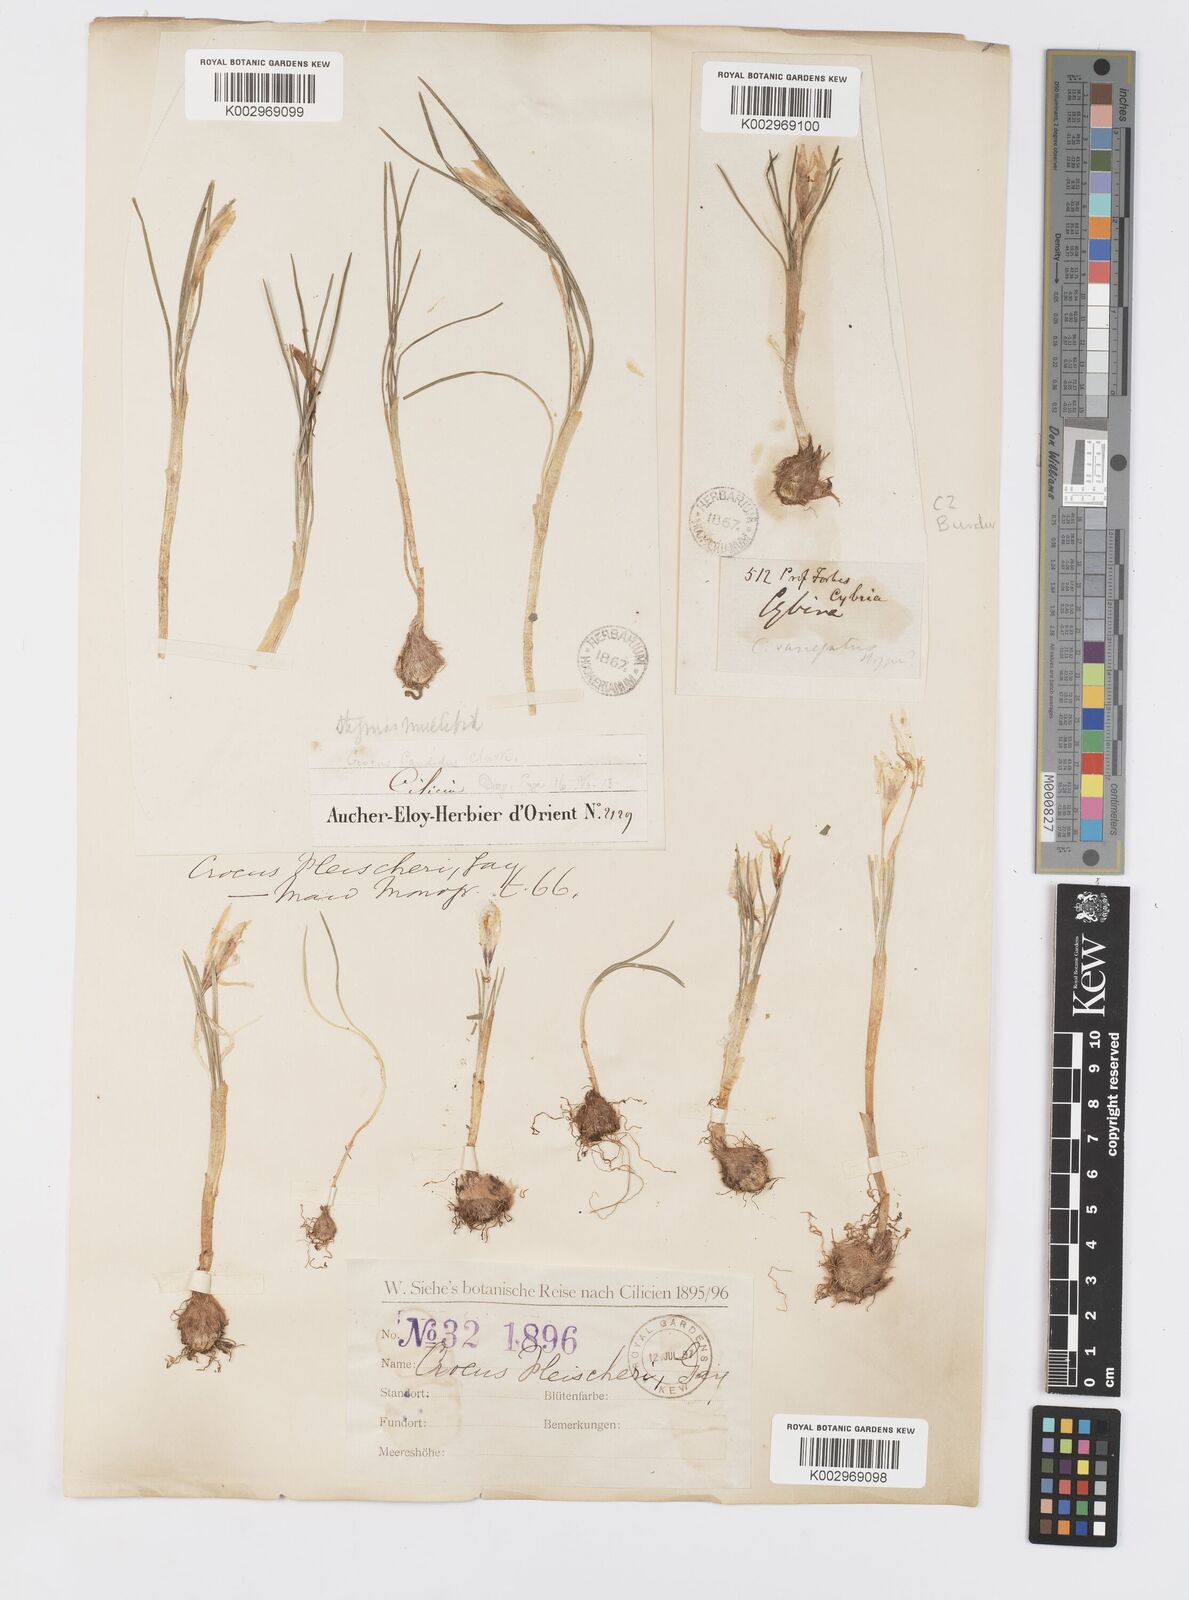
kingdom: Plantae
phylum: Tracheophyta
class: Liliopsida
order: Asparagales
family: Iridaceae
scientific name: Iridaceae
